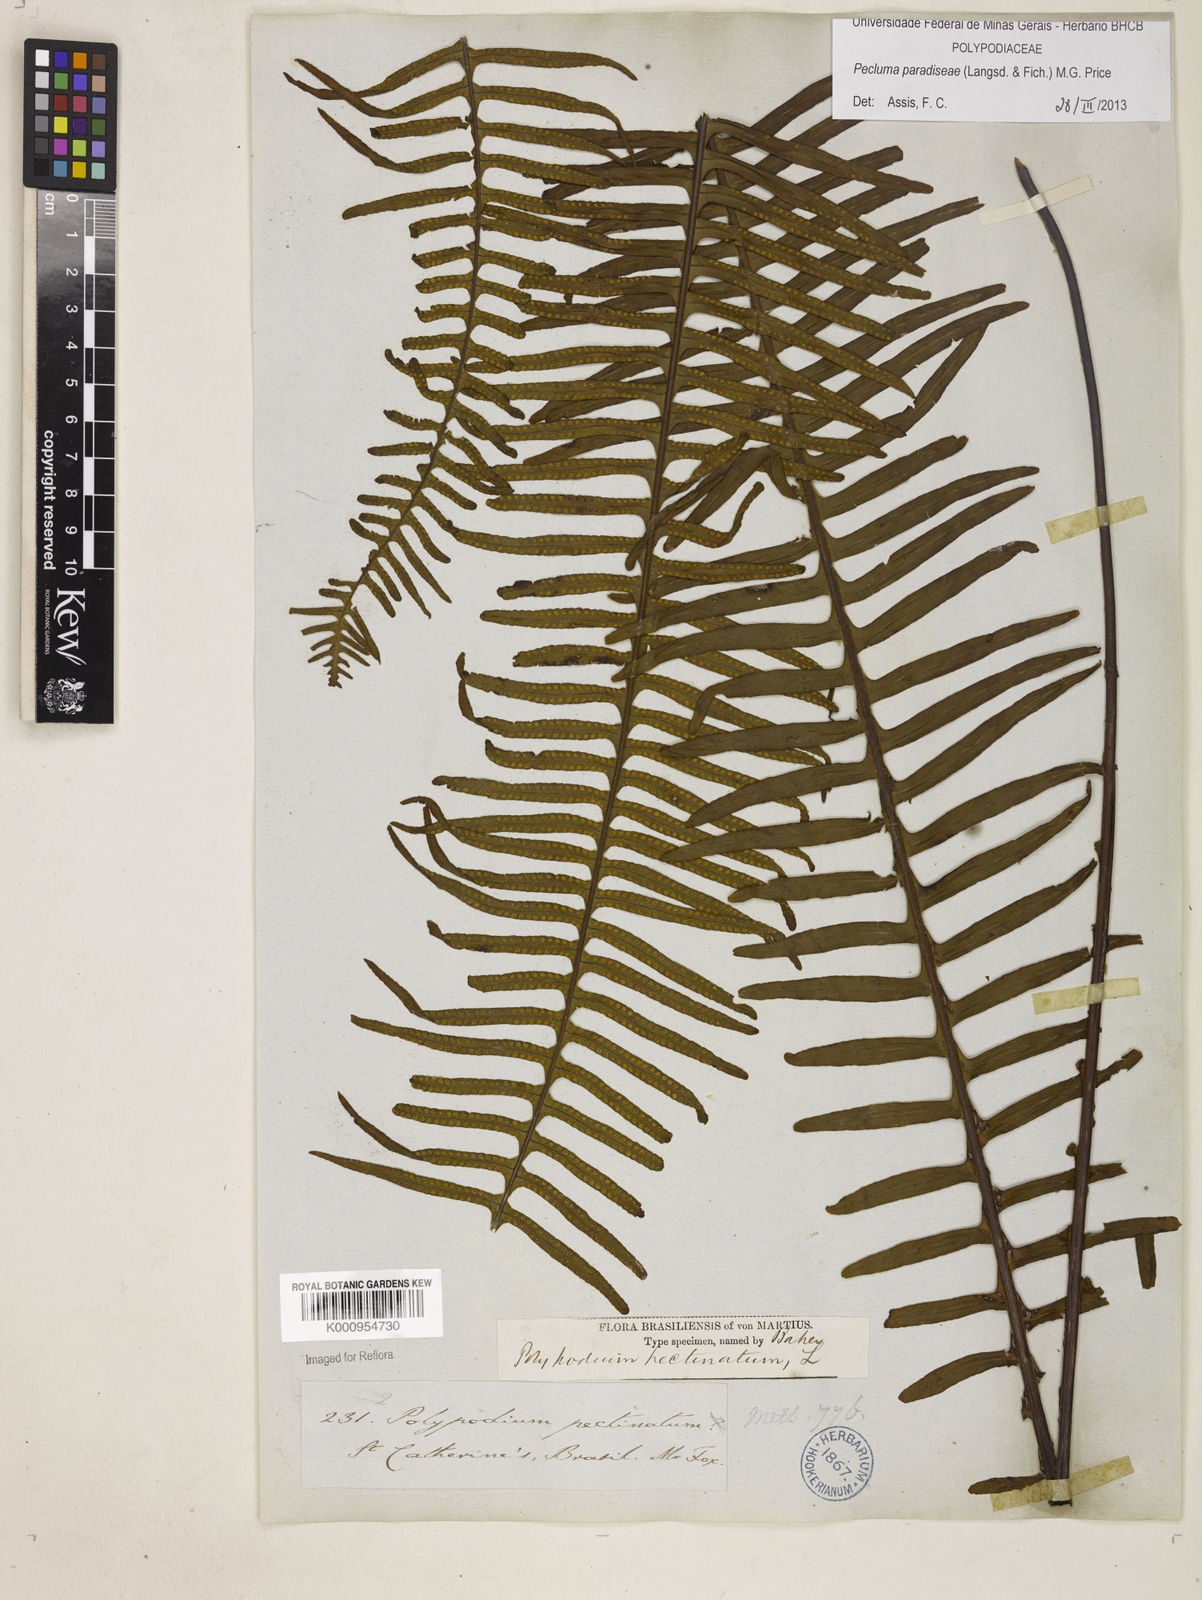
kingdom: Plantae
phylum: Tracheophyta
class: Polypodiopsida
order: Polypodiales
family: Polypodiaceae
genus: Pecluma
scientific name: Pecluma paradiseae
